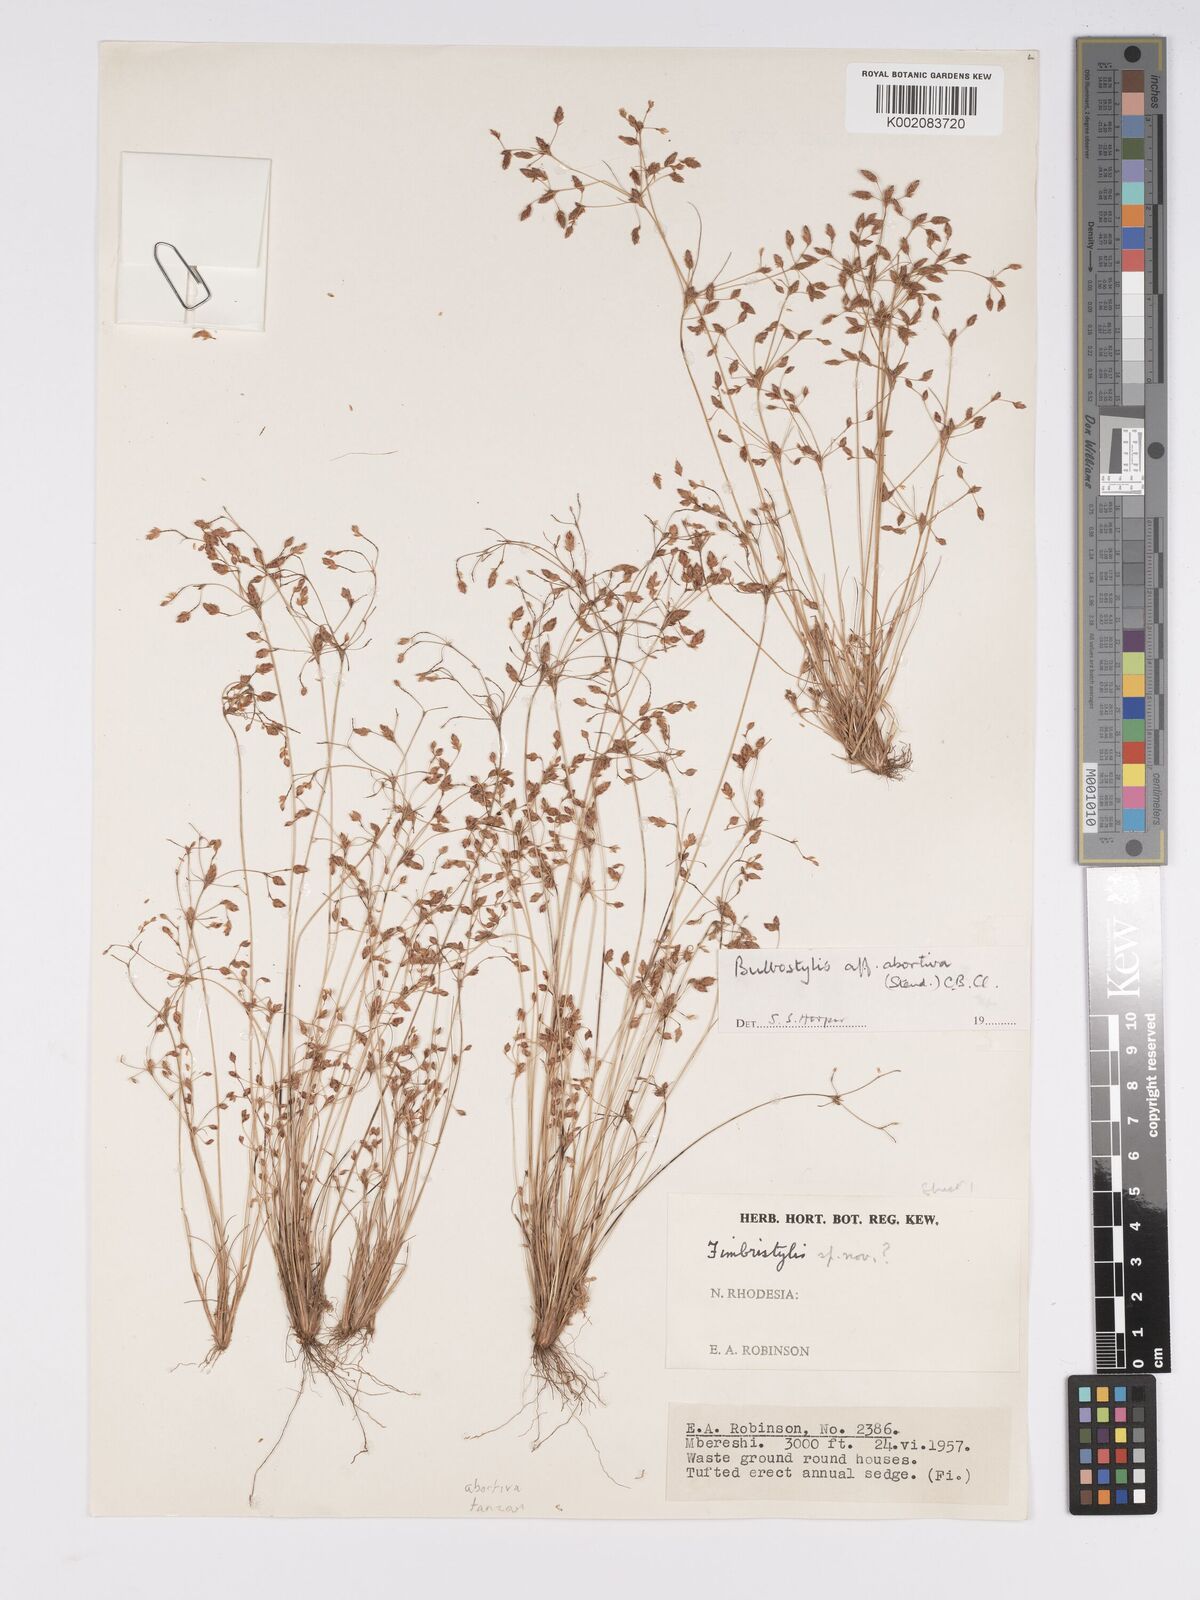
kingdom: Plantae
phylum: Tracheophyta
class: Liliopsida
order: Poales
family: Cyperaceae
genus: Bulbostylis
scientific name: Bulbostylis abortiva
